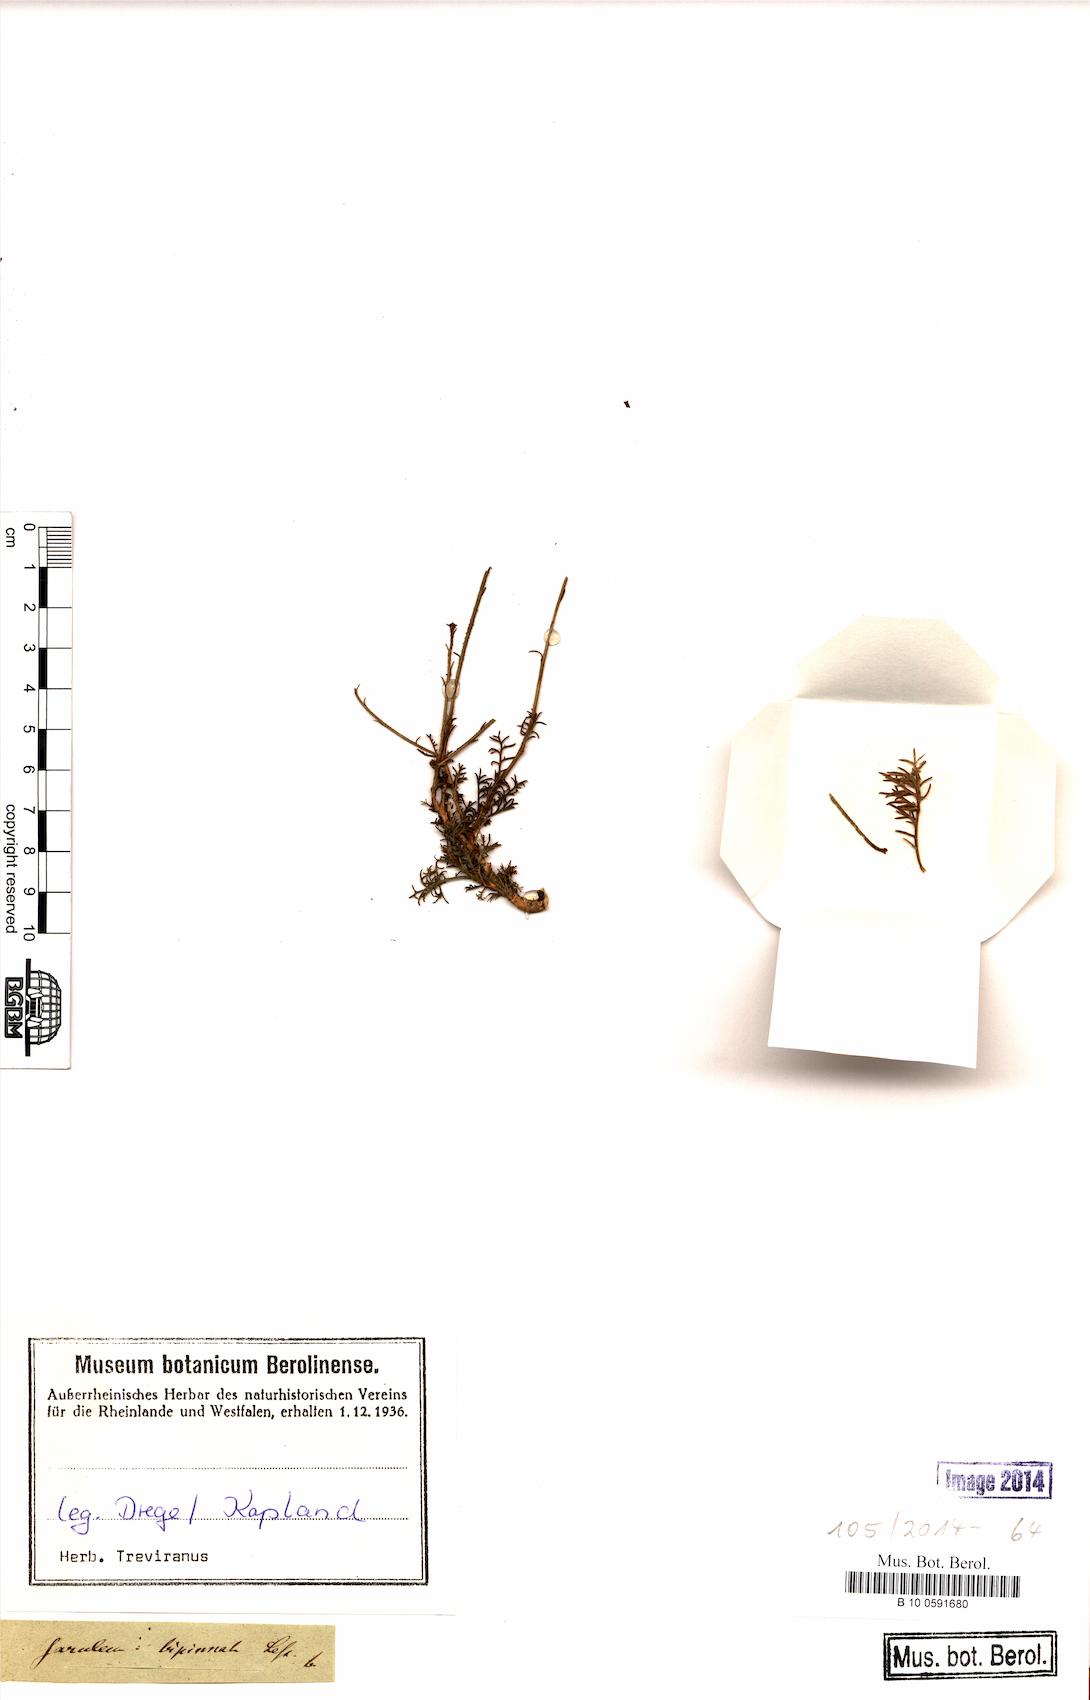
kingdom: Plantae
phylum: Tracheophyta
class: Magnoliopsida
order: Asterales
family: Asteraceae
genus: Garuleum
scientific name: Garuleum bipinnatum
